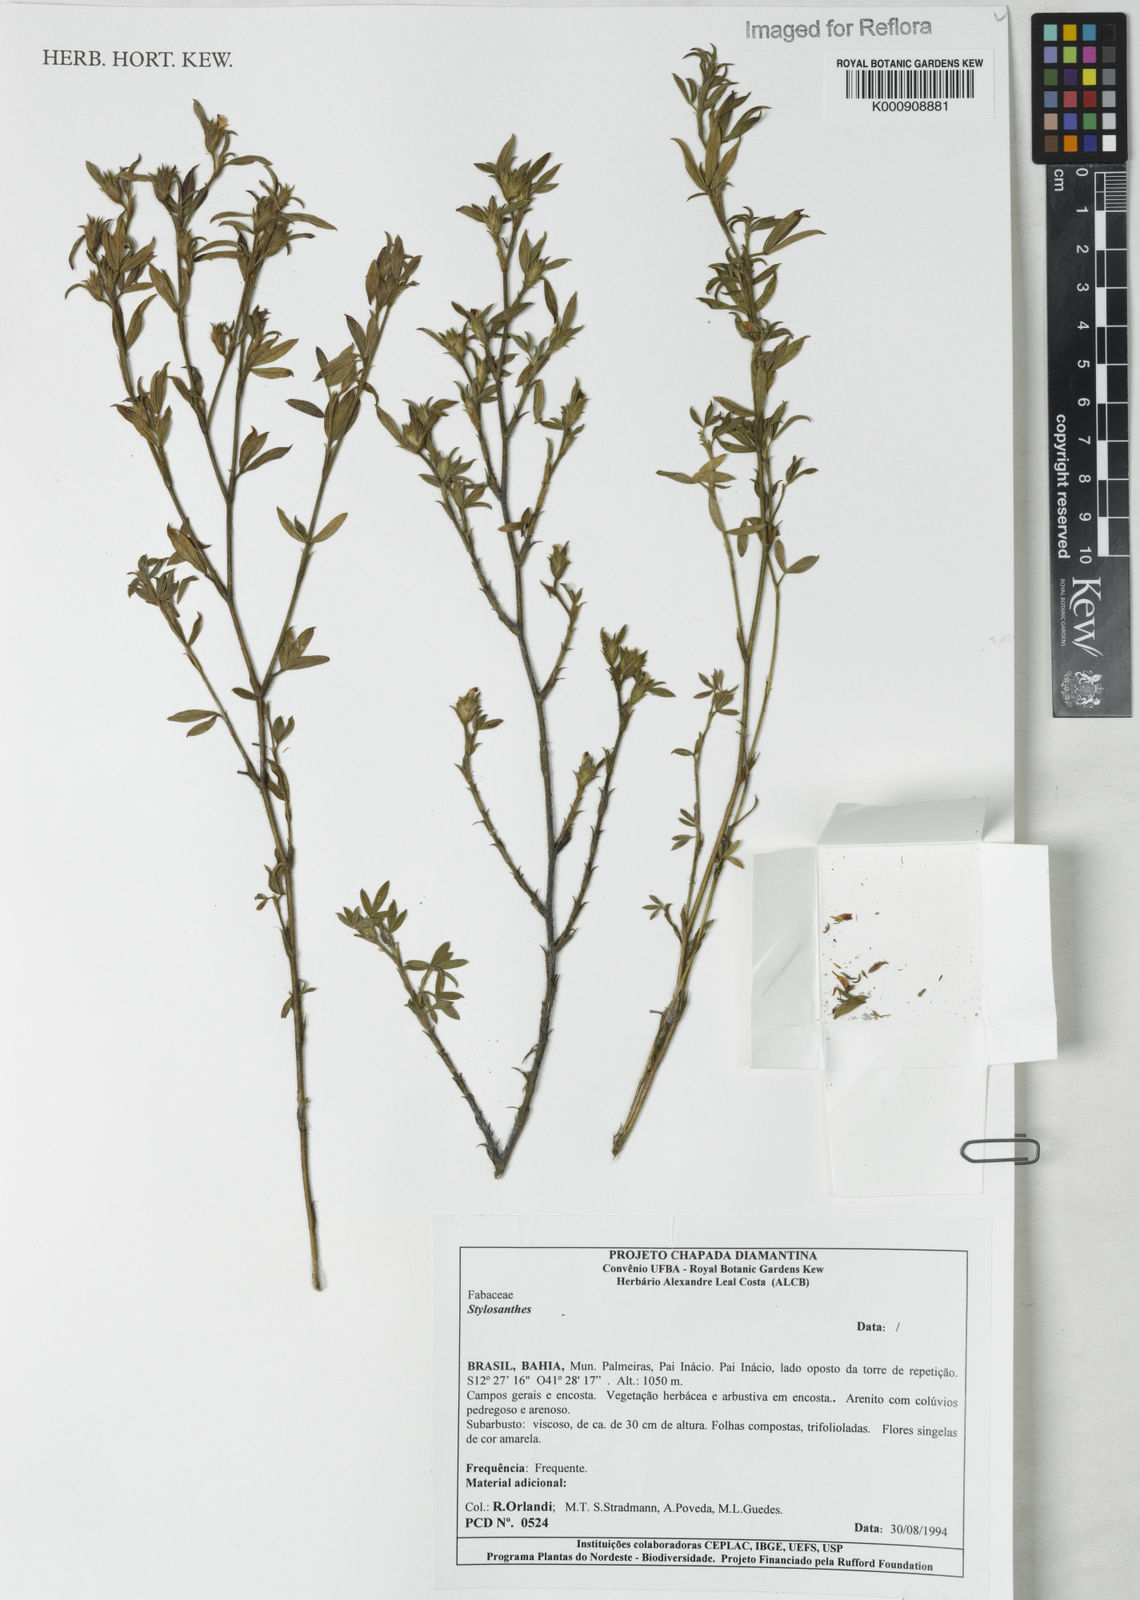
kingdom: Plantae
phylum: Tracheophyta
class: Magnoliopsida
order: Fabales
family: Fabaceae
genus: Stylosanthes
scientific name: Stylosanthes
